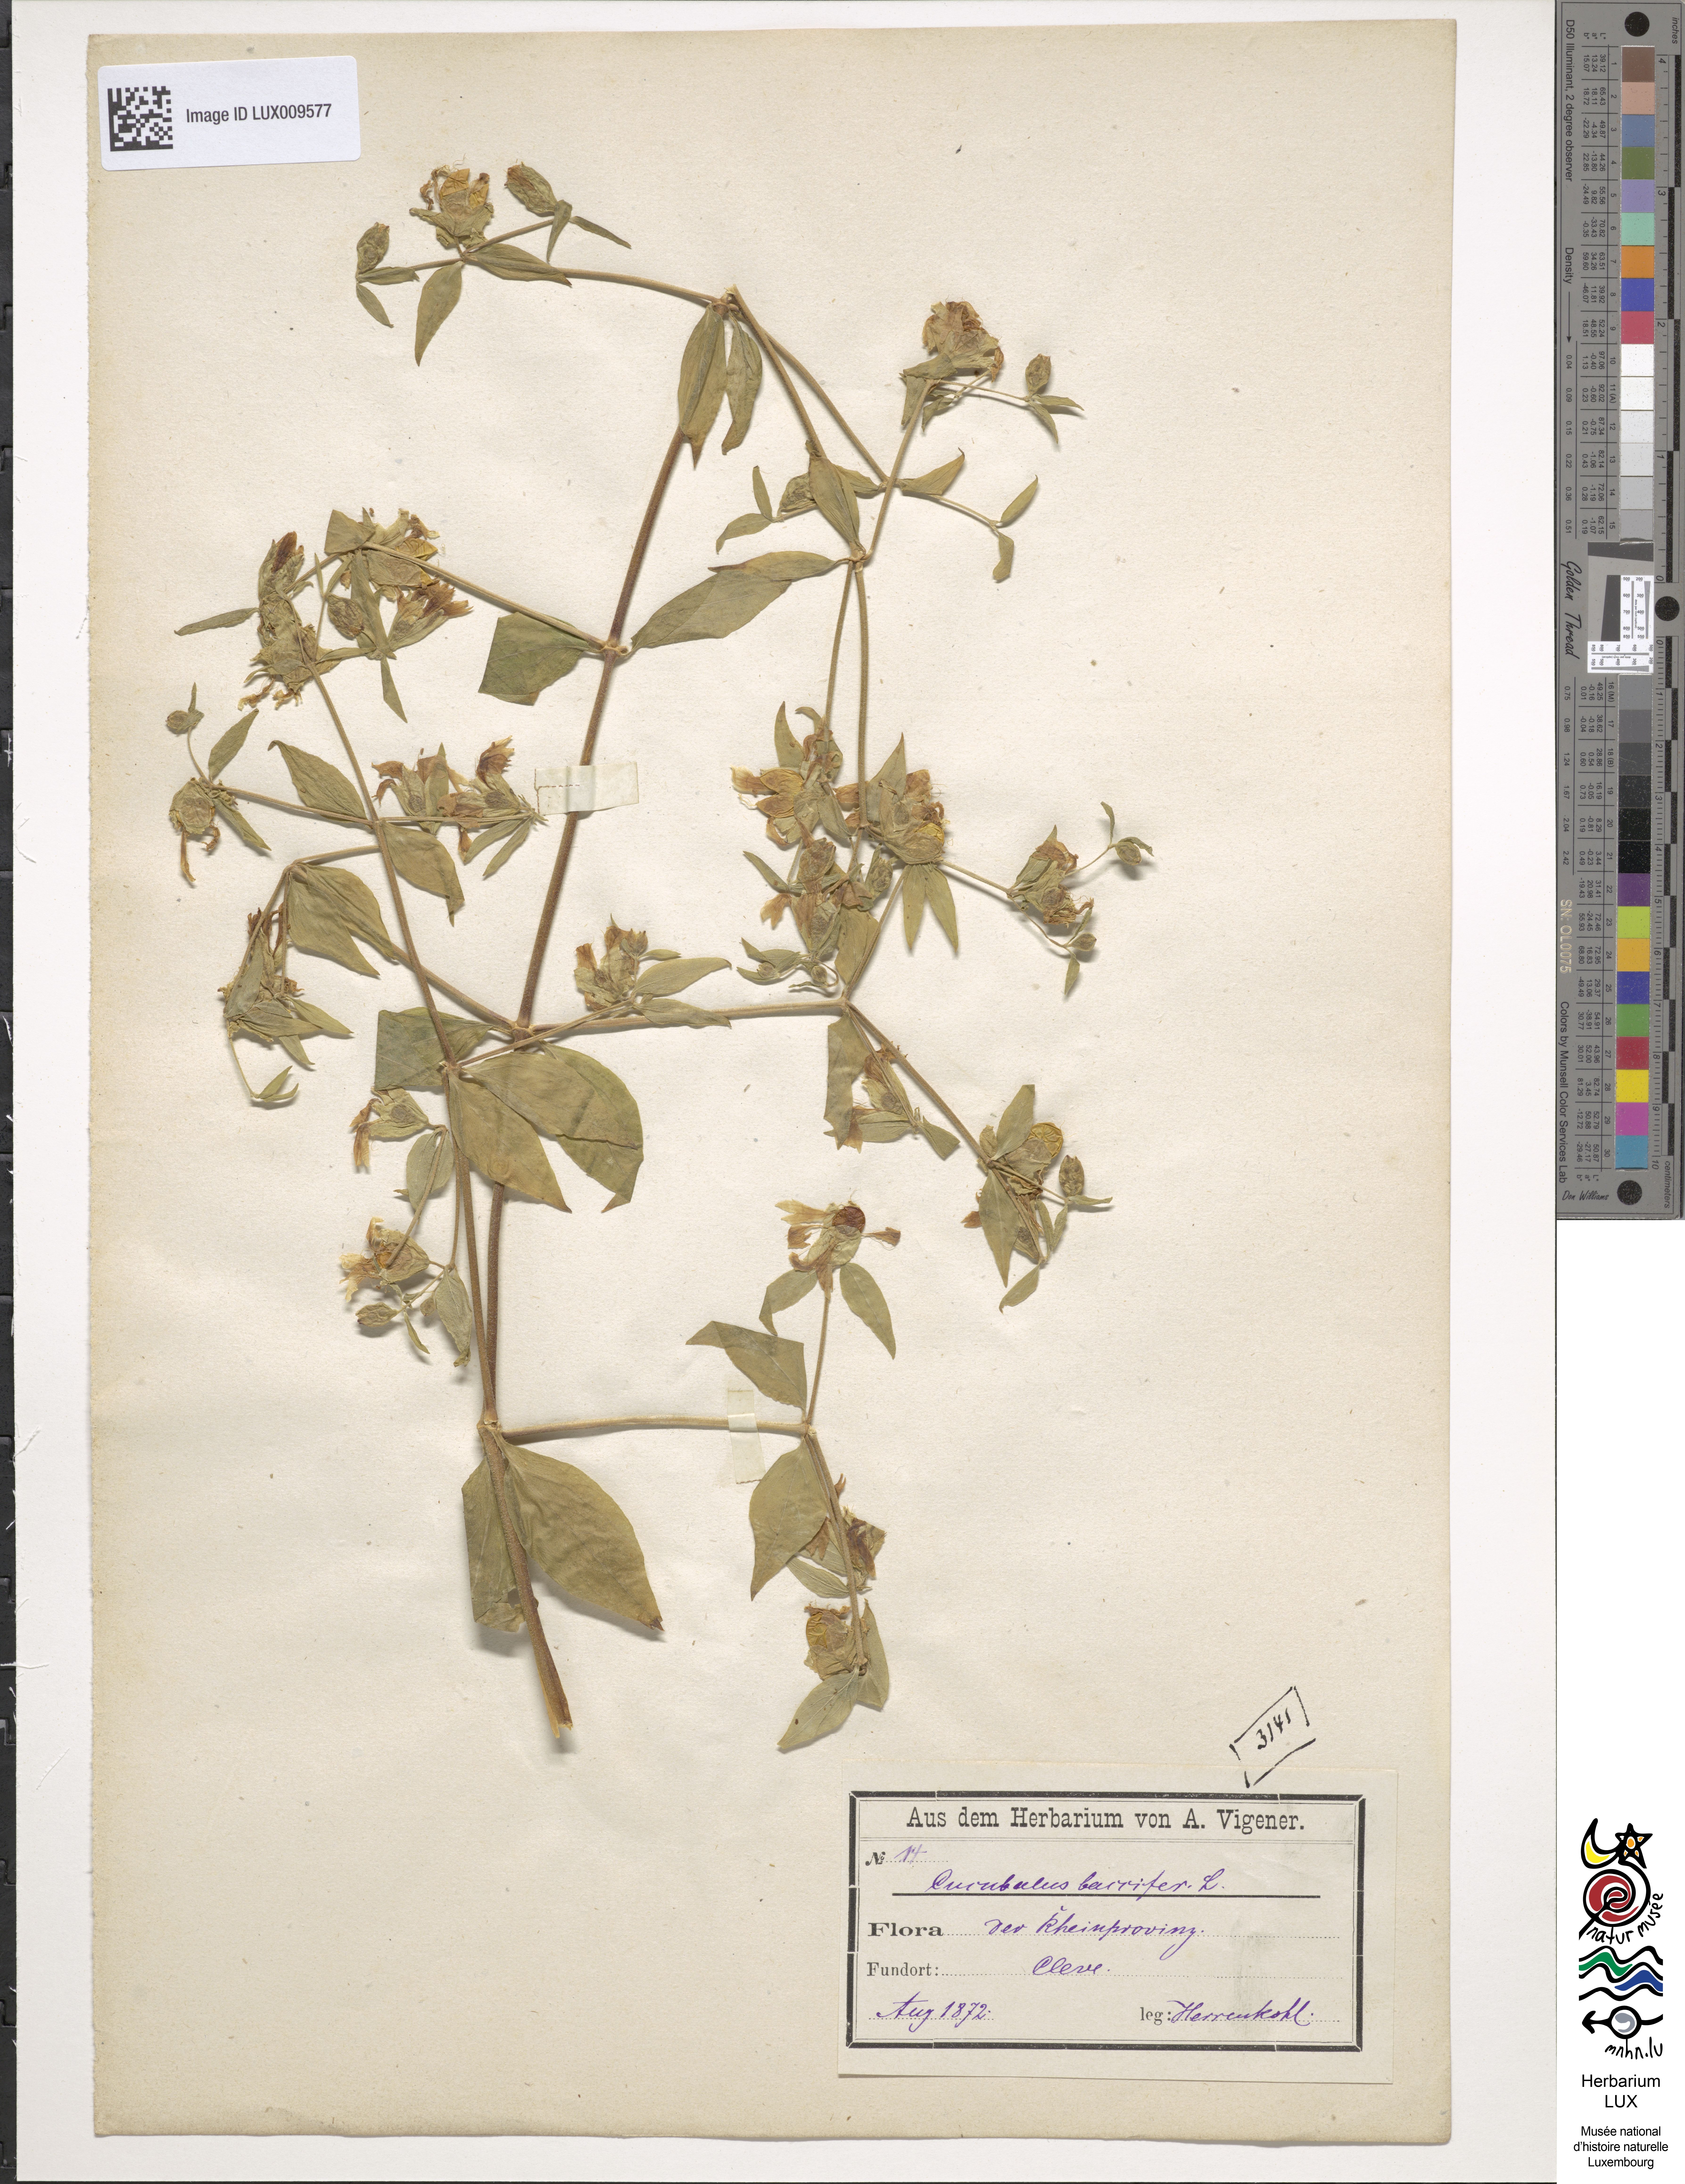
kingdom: Plantae
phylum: Tracheophyta
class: Magnoliopsida
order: Caryophyllales
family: Caryophyllaceae
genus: Silene
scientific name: Silene baccifera
